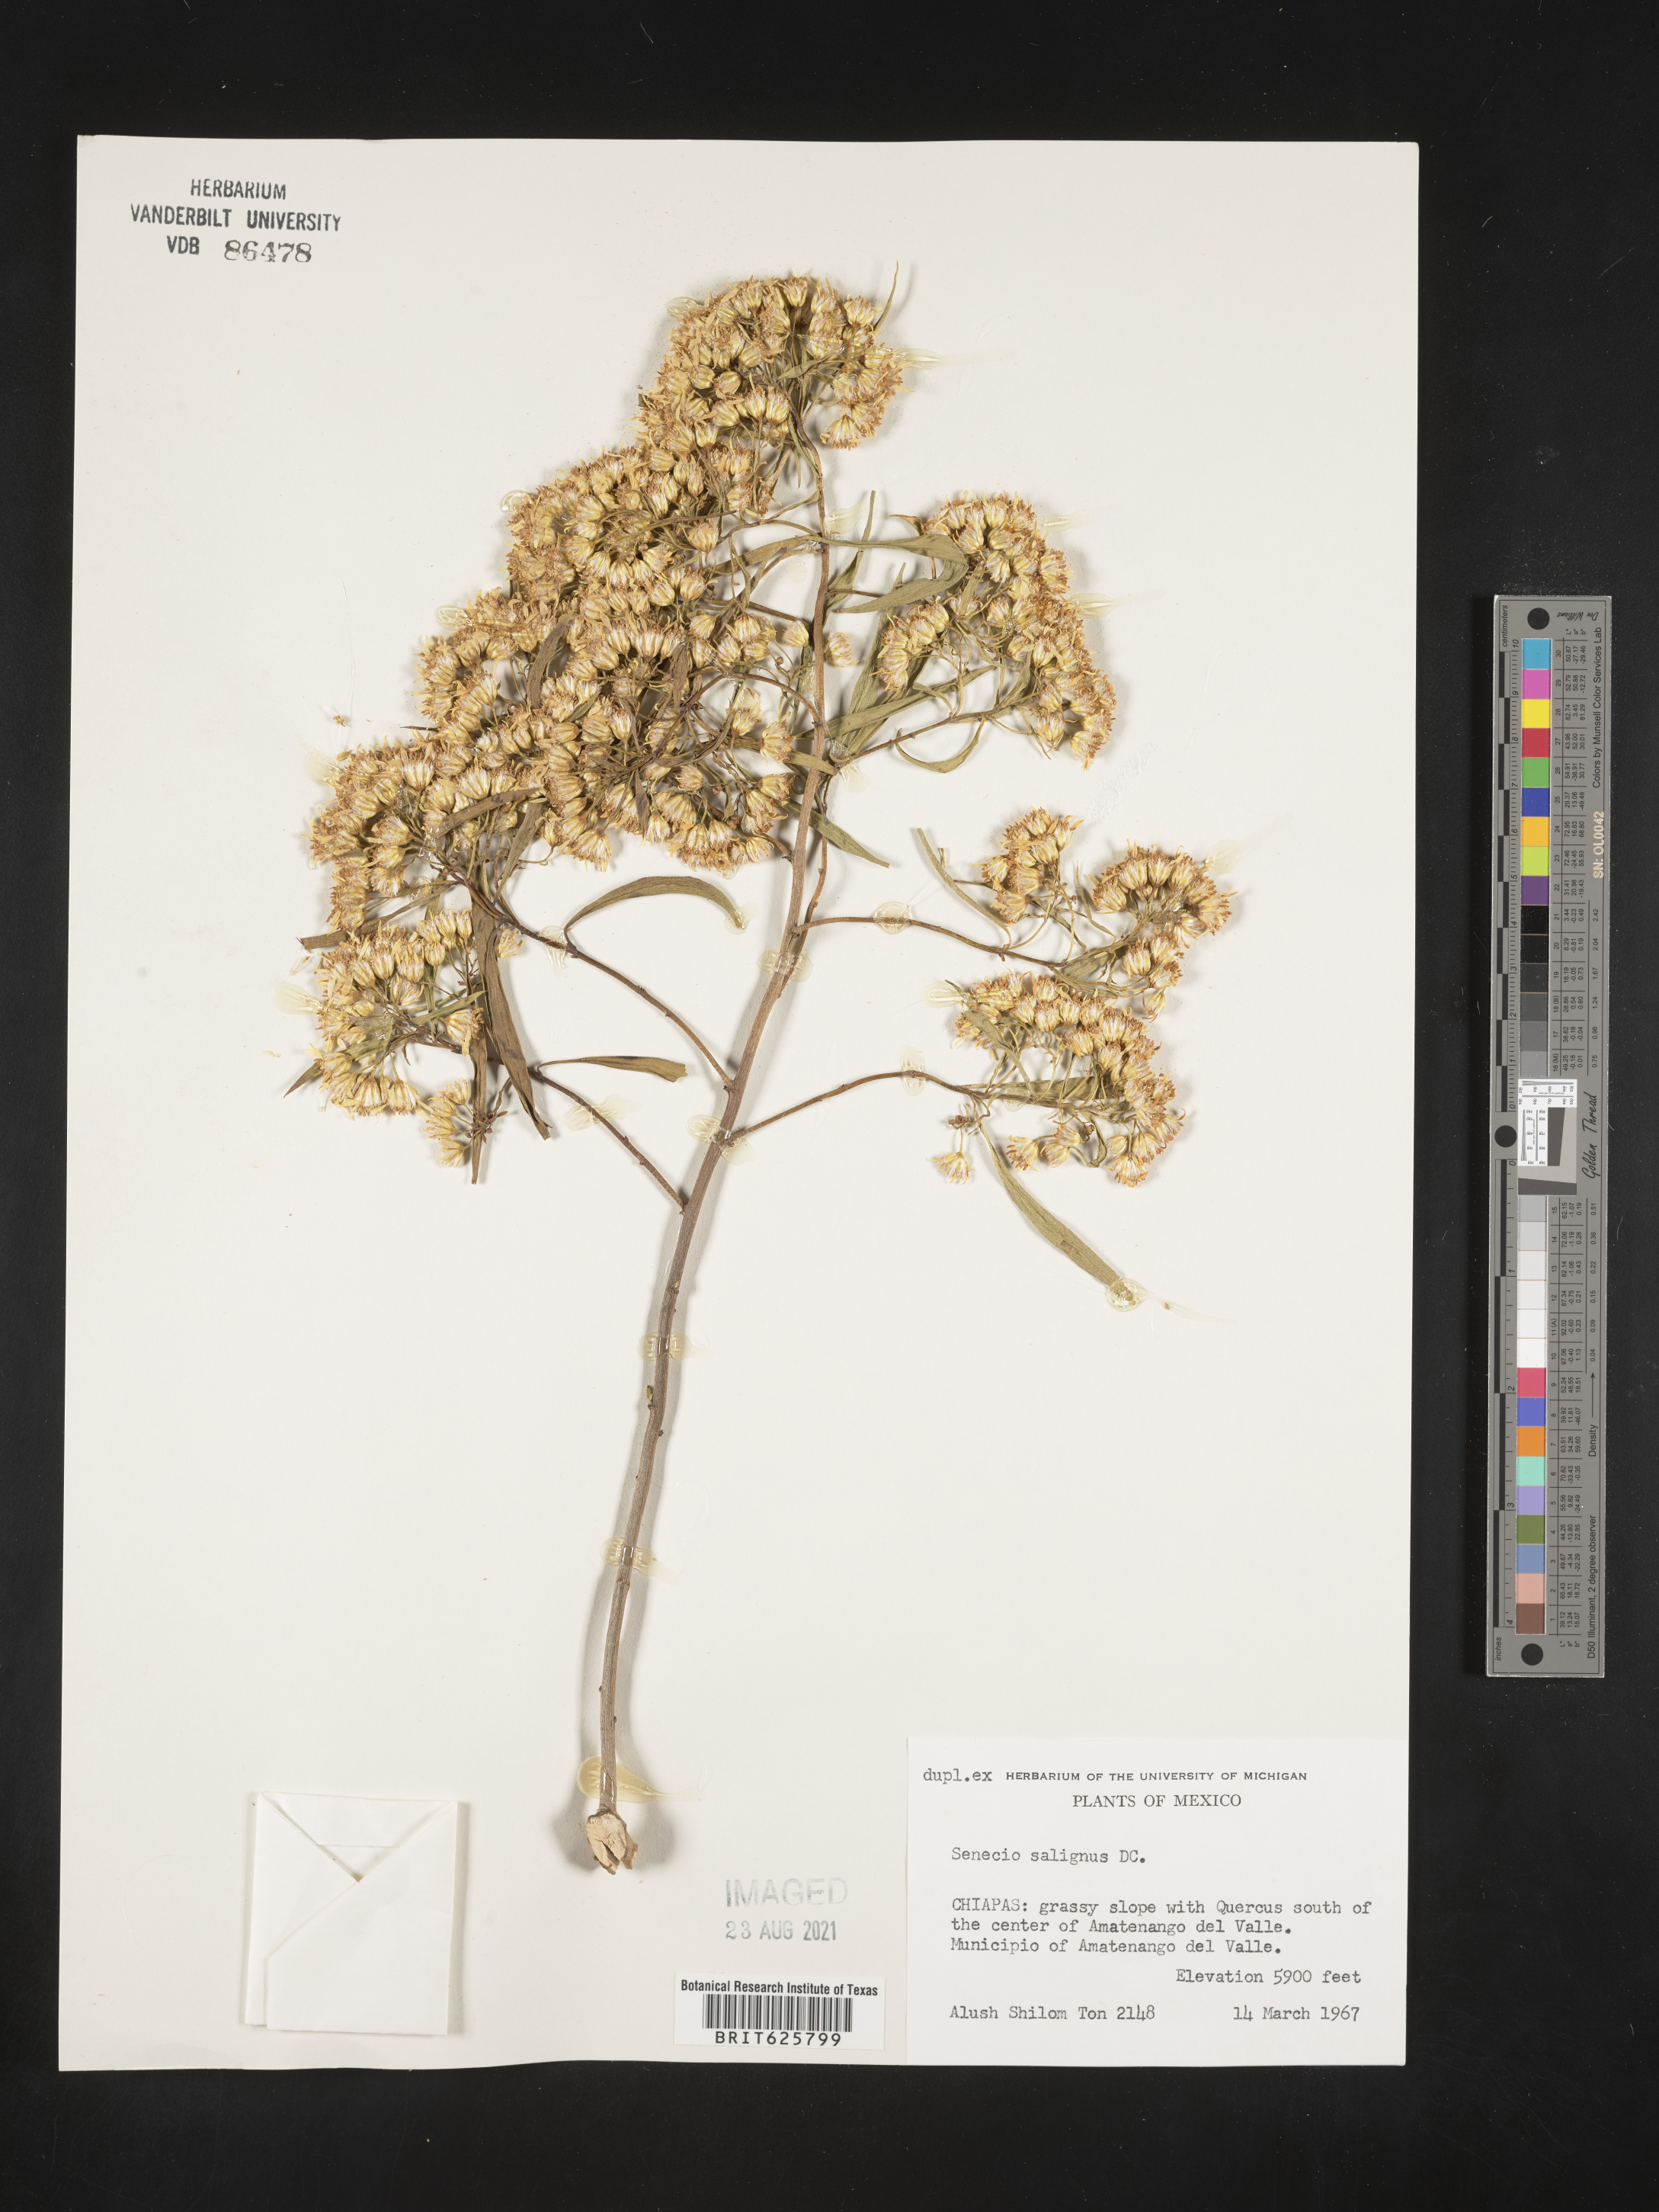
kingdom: Plantae
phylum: Tracheophyta
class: Magnoliopsida
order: Asterales
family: Asteraceae
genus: Barkleyanthus
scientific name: Barkleyanthus salicifolius
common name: Willow ragwort
